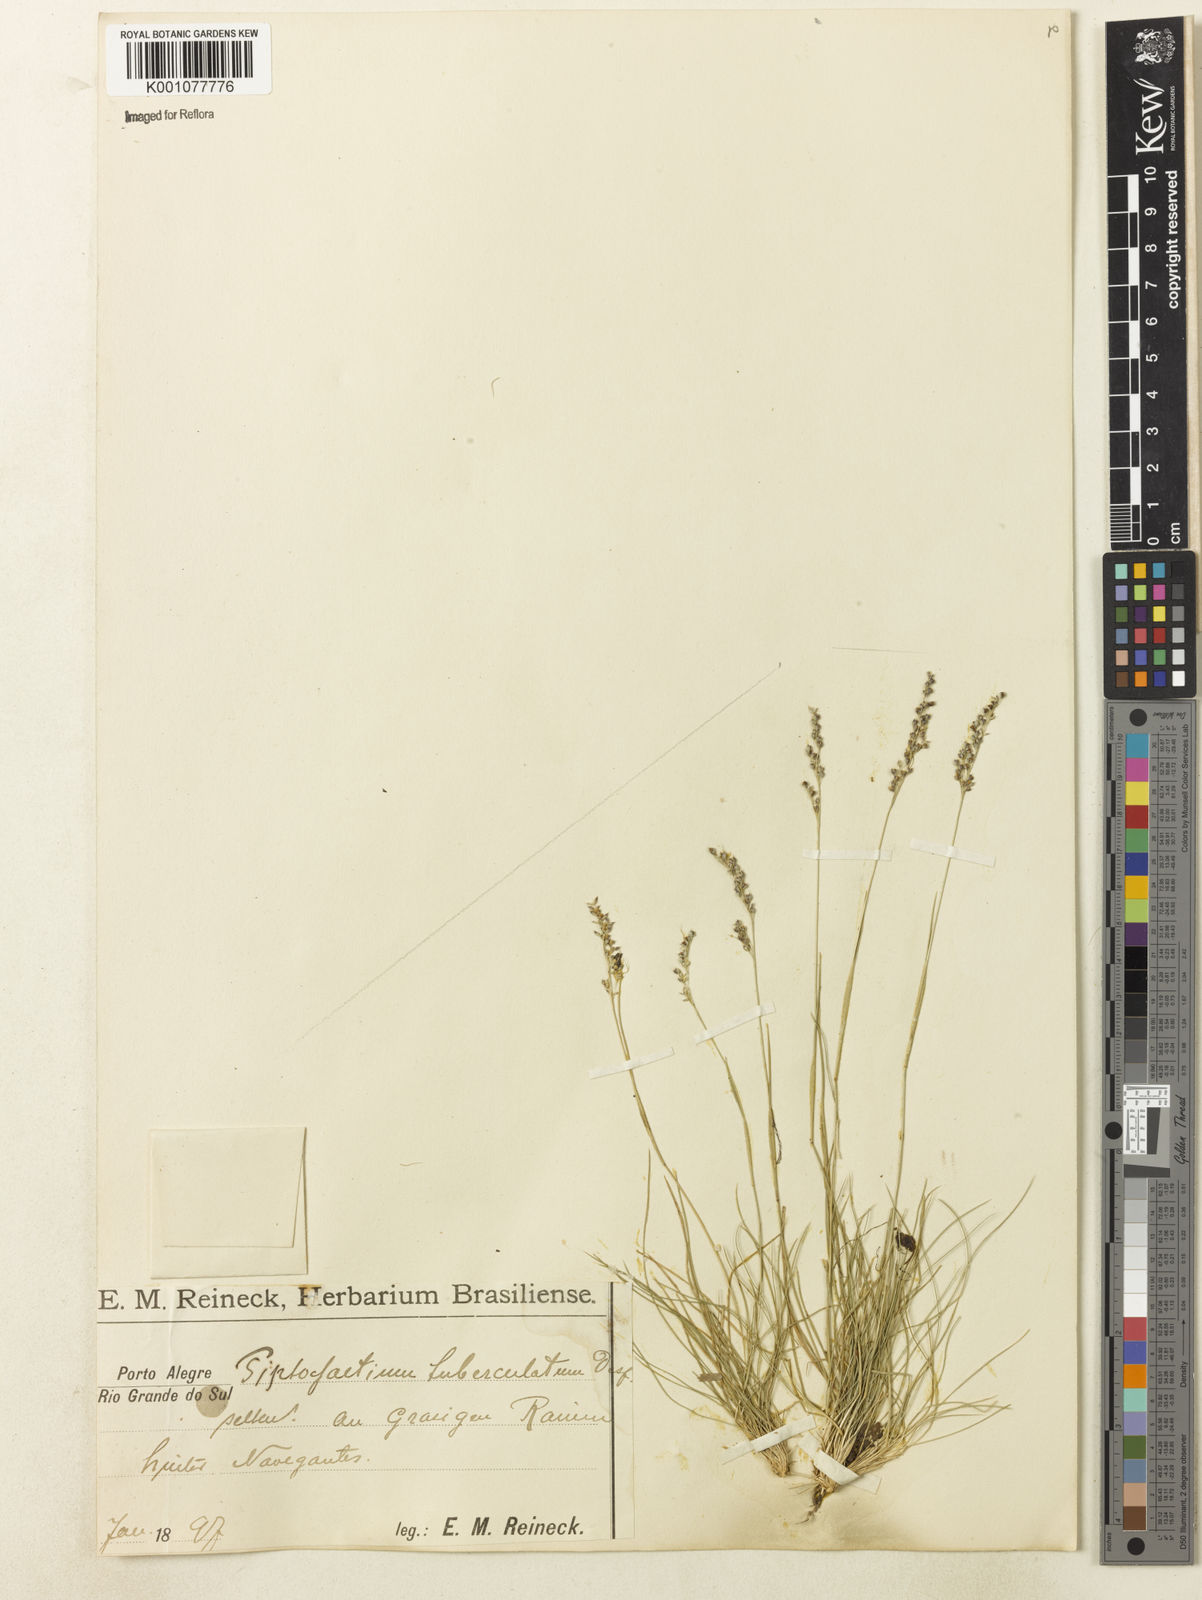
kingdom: Plantae
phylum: Tracheophyta
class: Liliopsida
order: Poales
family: Poaceae
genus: Piptochaetium
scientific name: Piptochaetium montevidense
